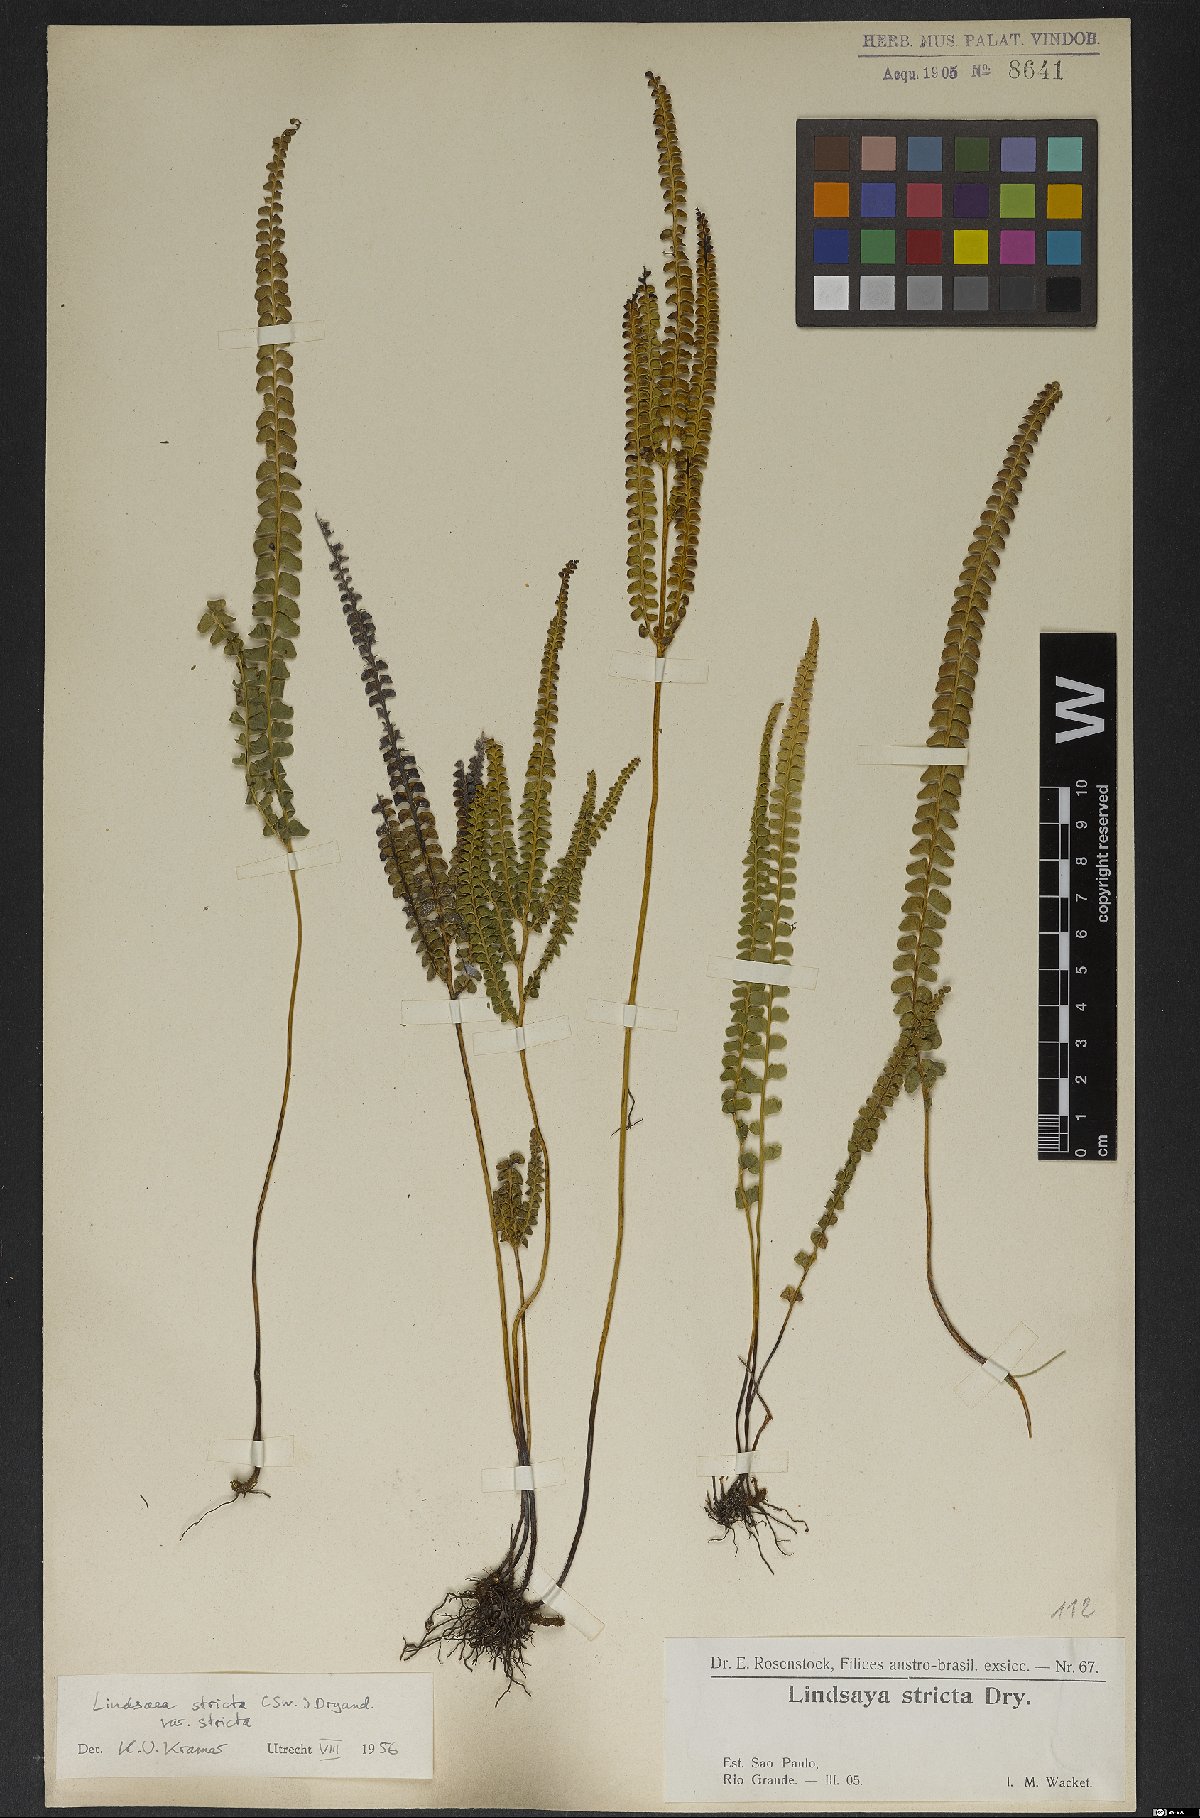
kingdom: Plantae
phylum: Tracheophyta
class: Polypodiopsida
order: Polypodiales
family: Lindsaeaceae
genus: Lindsaea
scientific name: Lindsaea stricta
